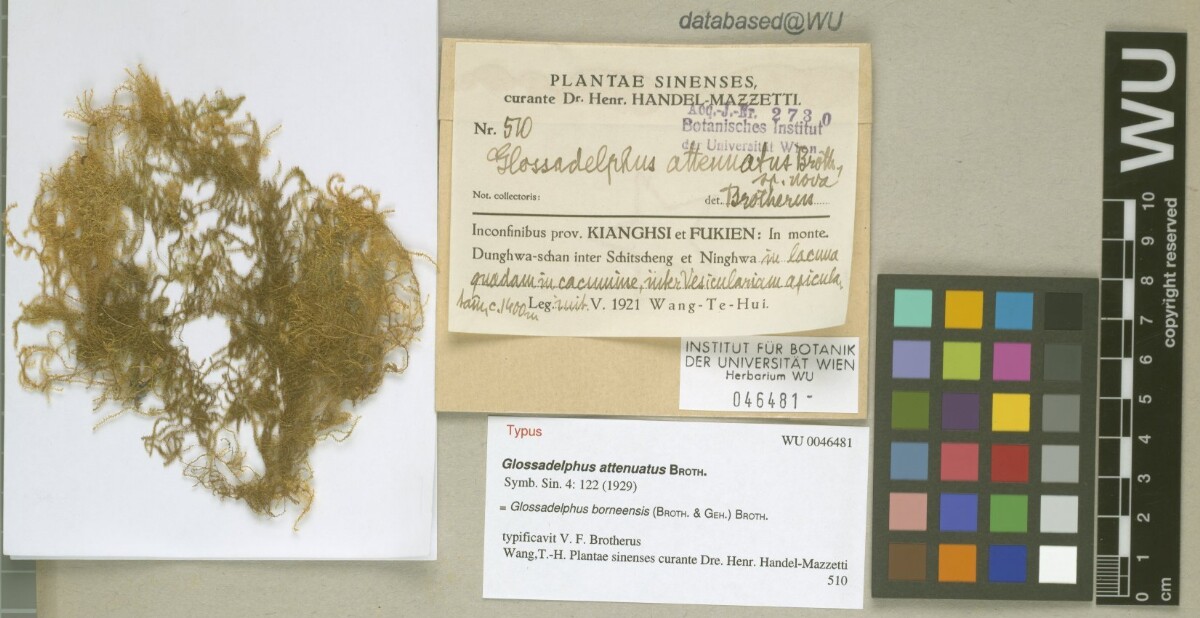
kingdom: Plantae
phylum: Bryophyta
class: Bryopsida
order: Hypnales
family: Hypnaceae
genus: Ectropothecium
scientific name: Ectropothecium cyperoides
